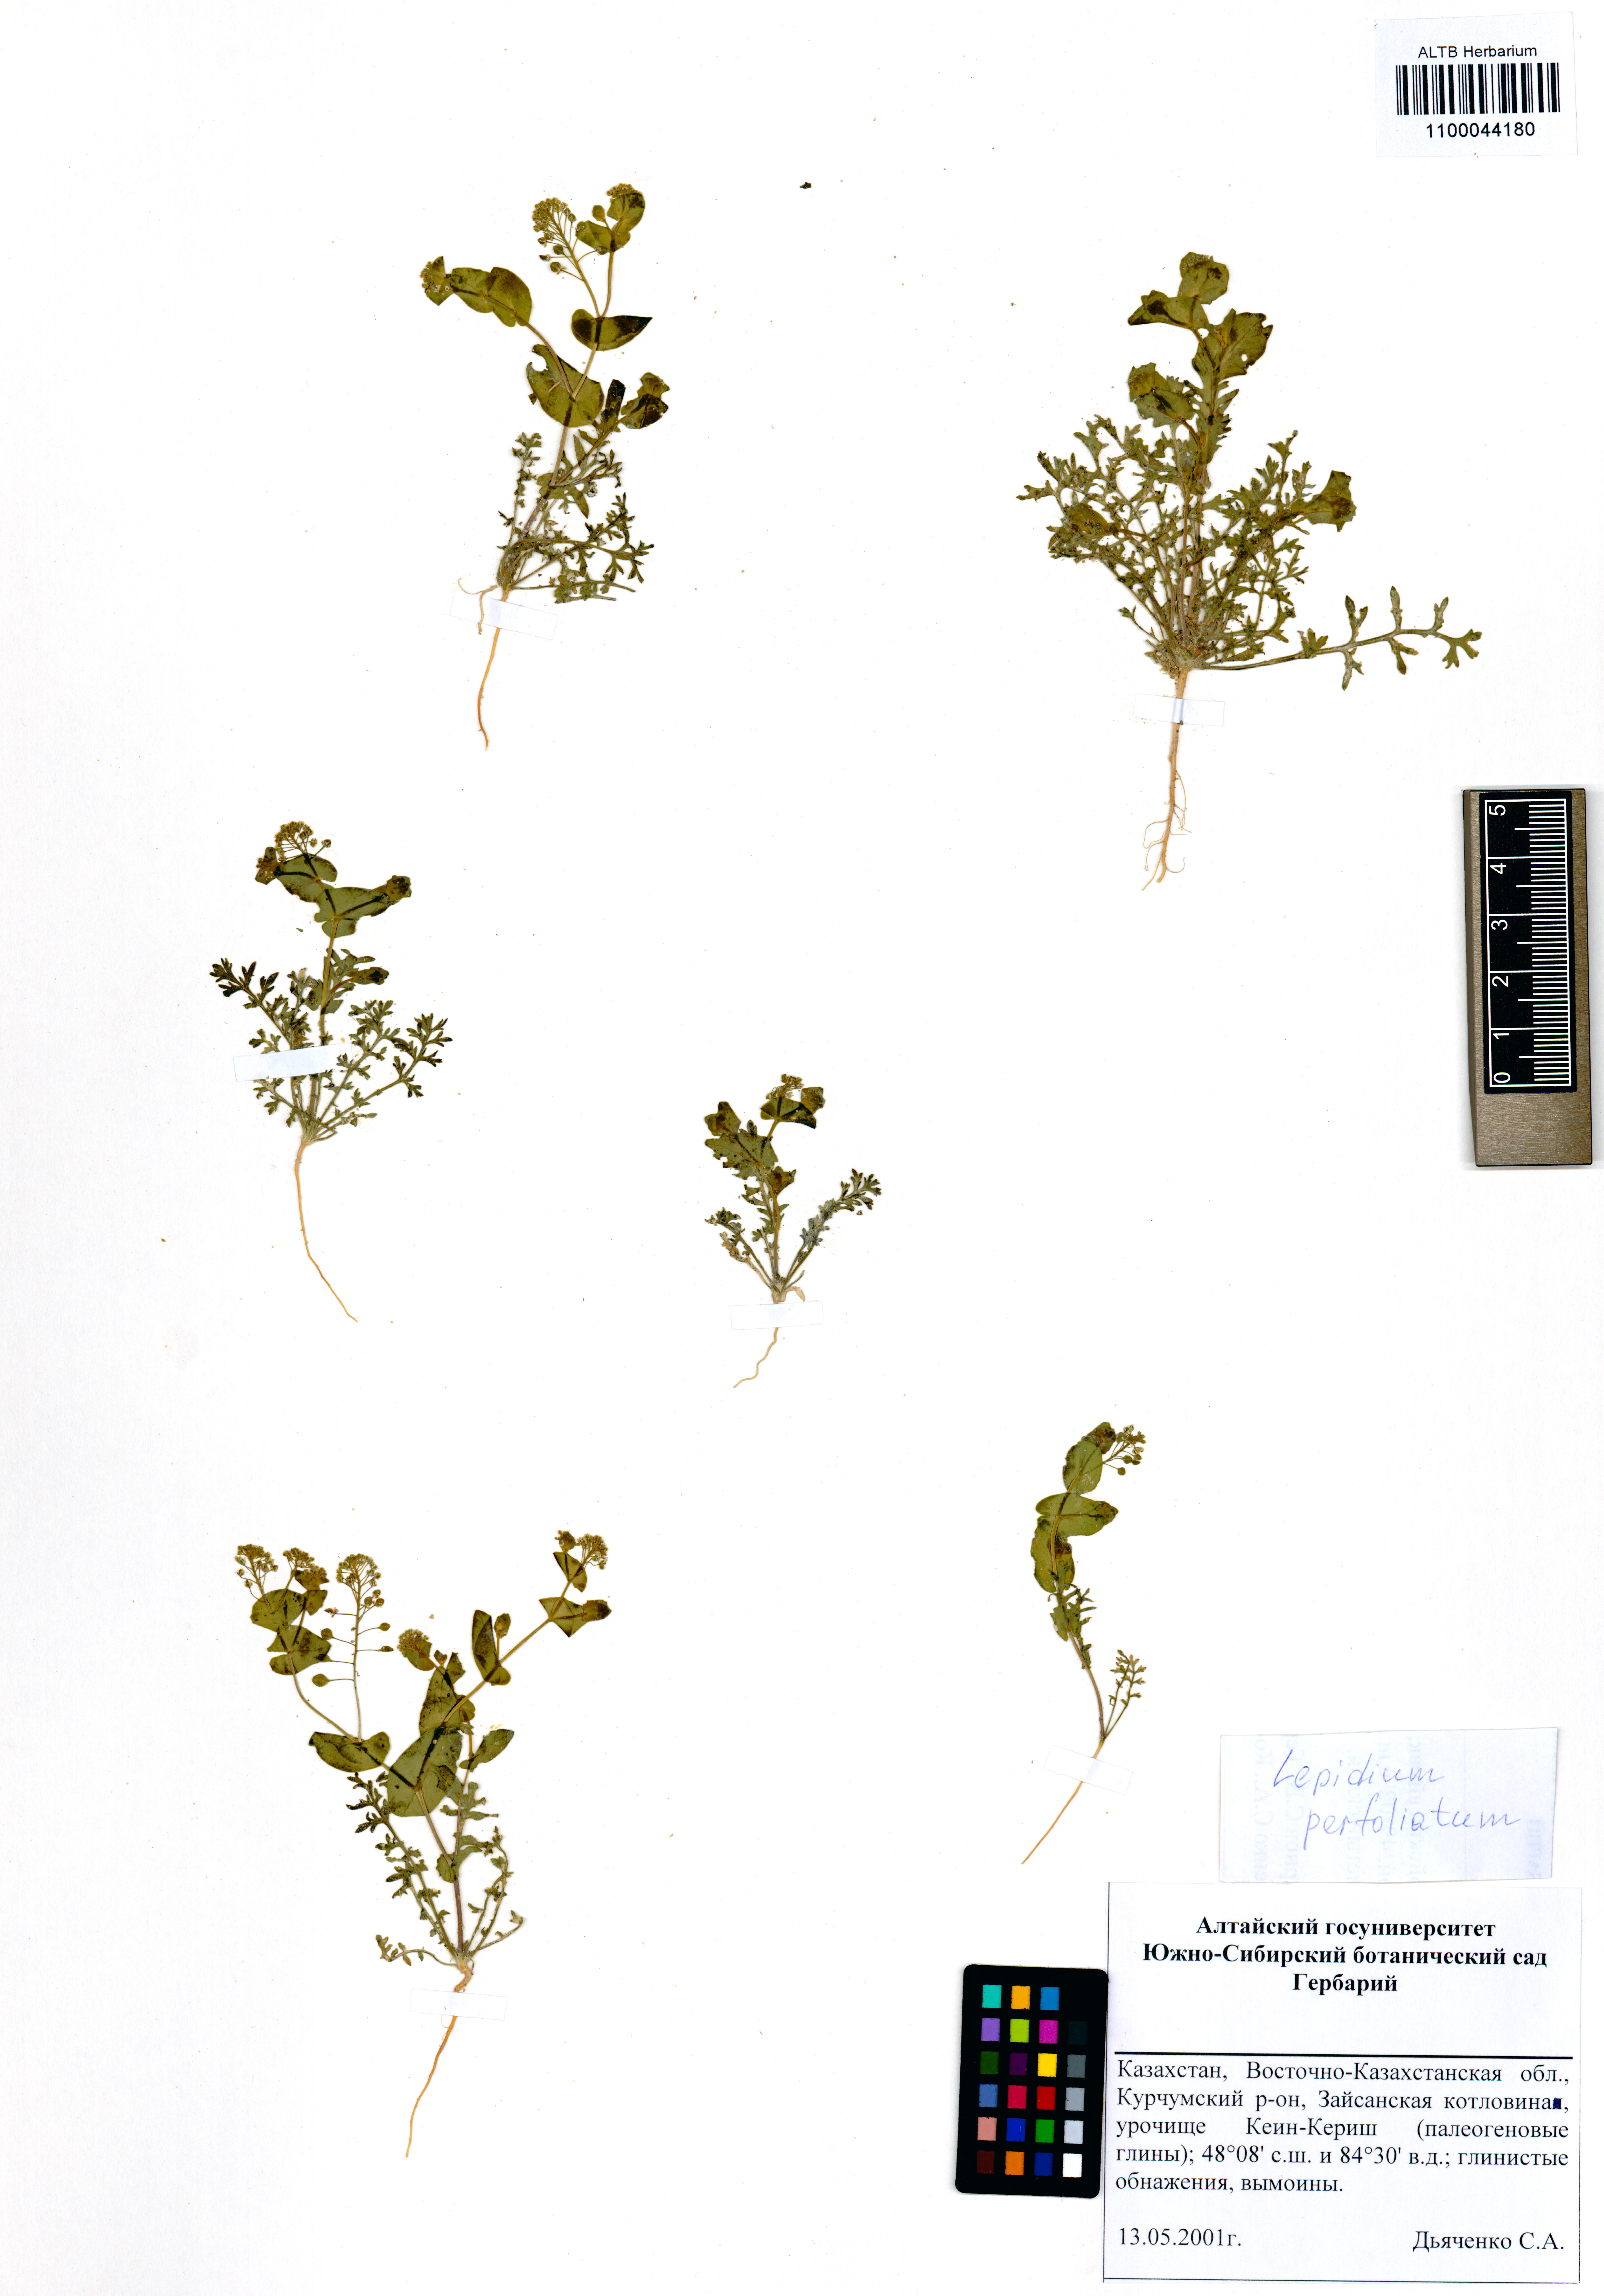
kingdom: Plantae
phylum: Tracheophyta
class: Magnoliopsida
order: Brassicales
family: Brassicaceae
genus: Lepidium
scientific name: Lepidium perfoliatum
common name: Perfoliate pepperwort
